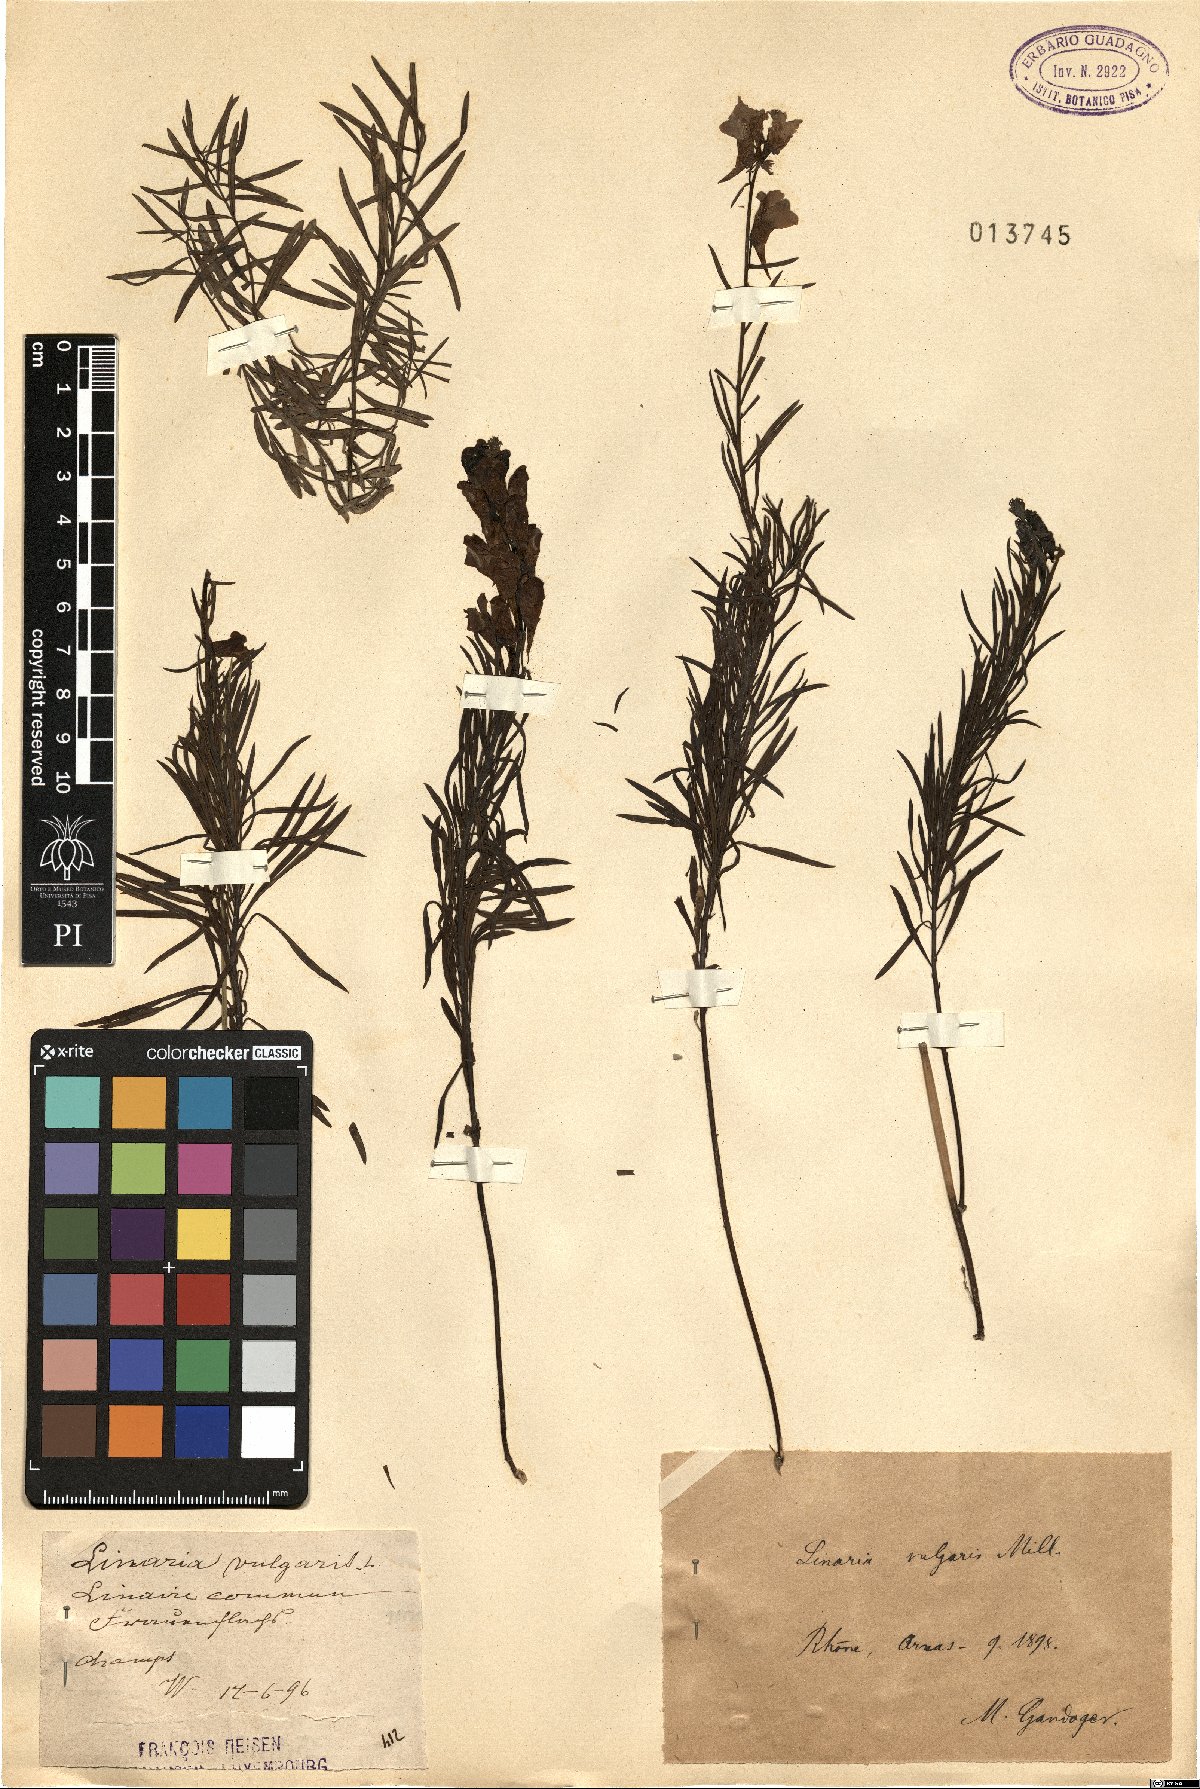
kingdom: Plantae
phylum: Tracheophyta
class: Magnoliopsida
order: Lamiales
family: Plantaginaceae
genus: Linaria
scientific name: Linaria vulgaris
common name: Butter and eggs
